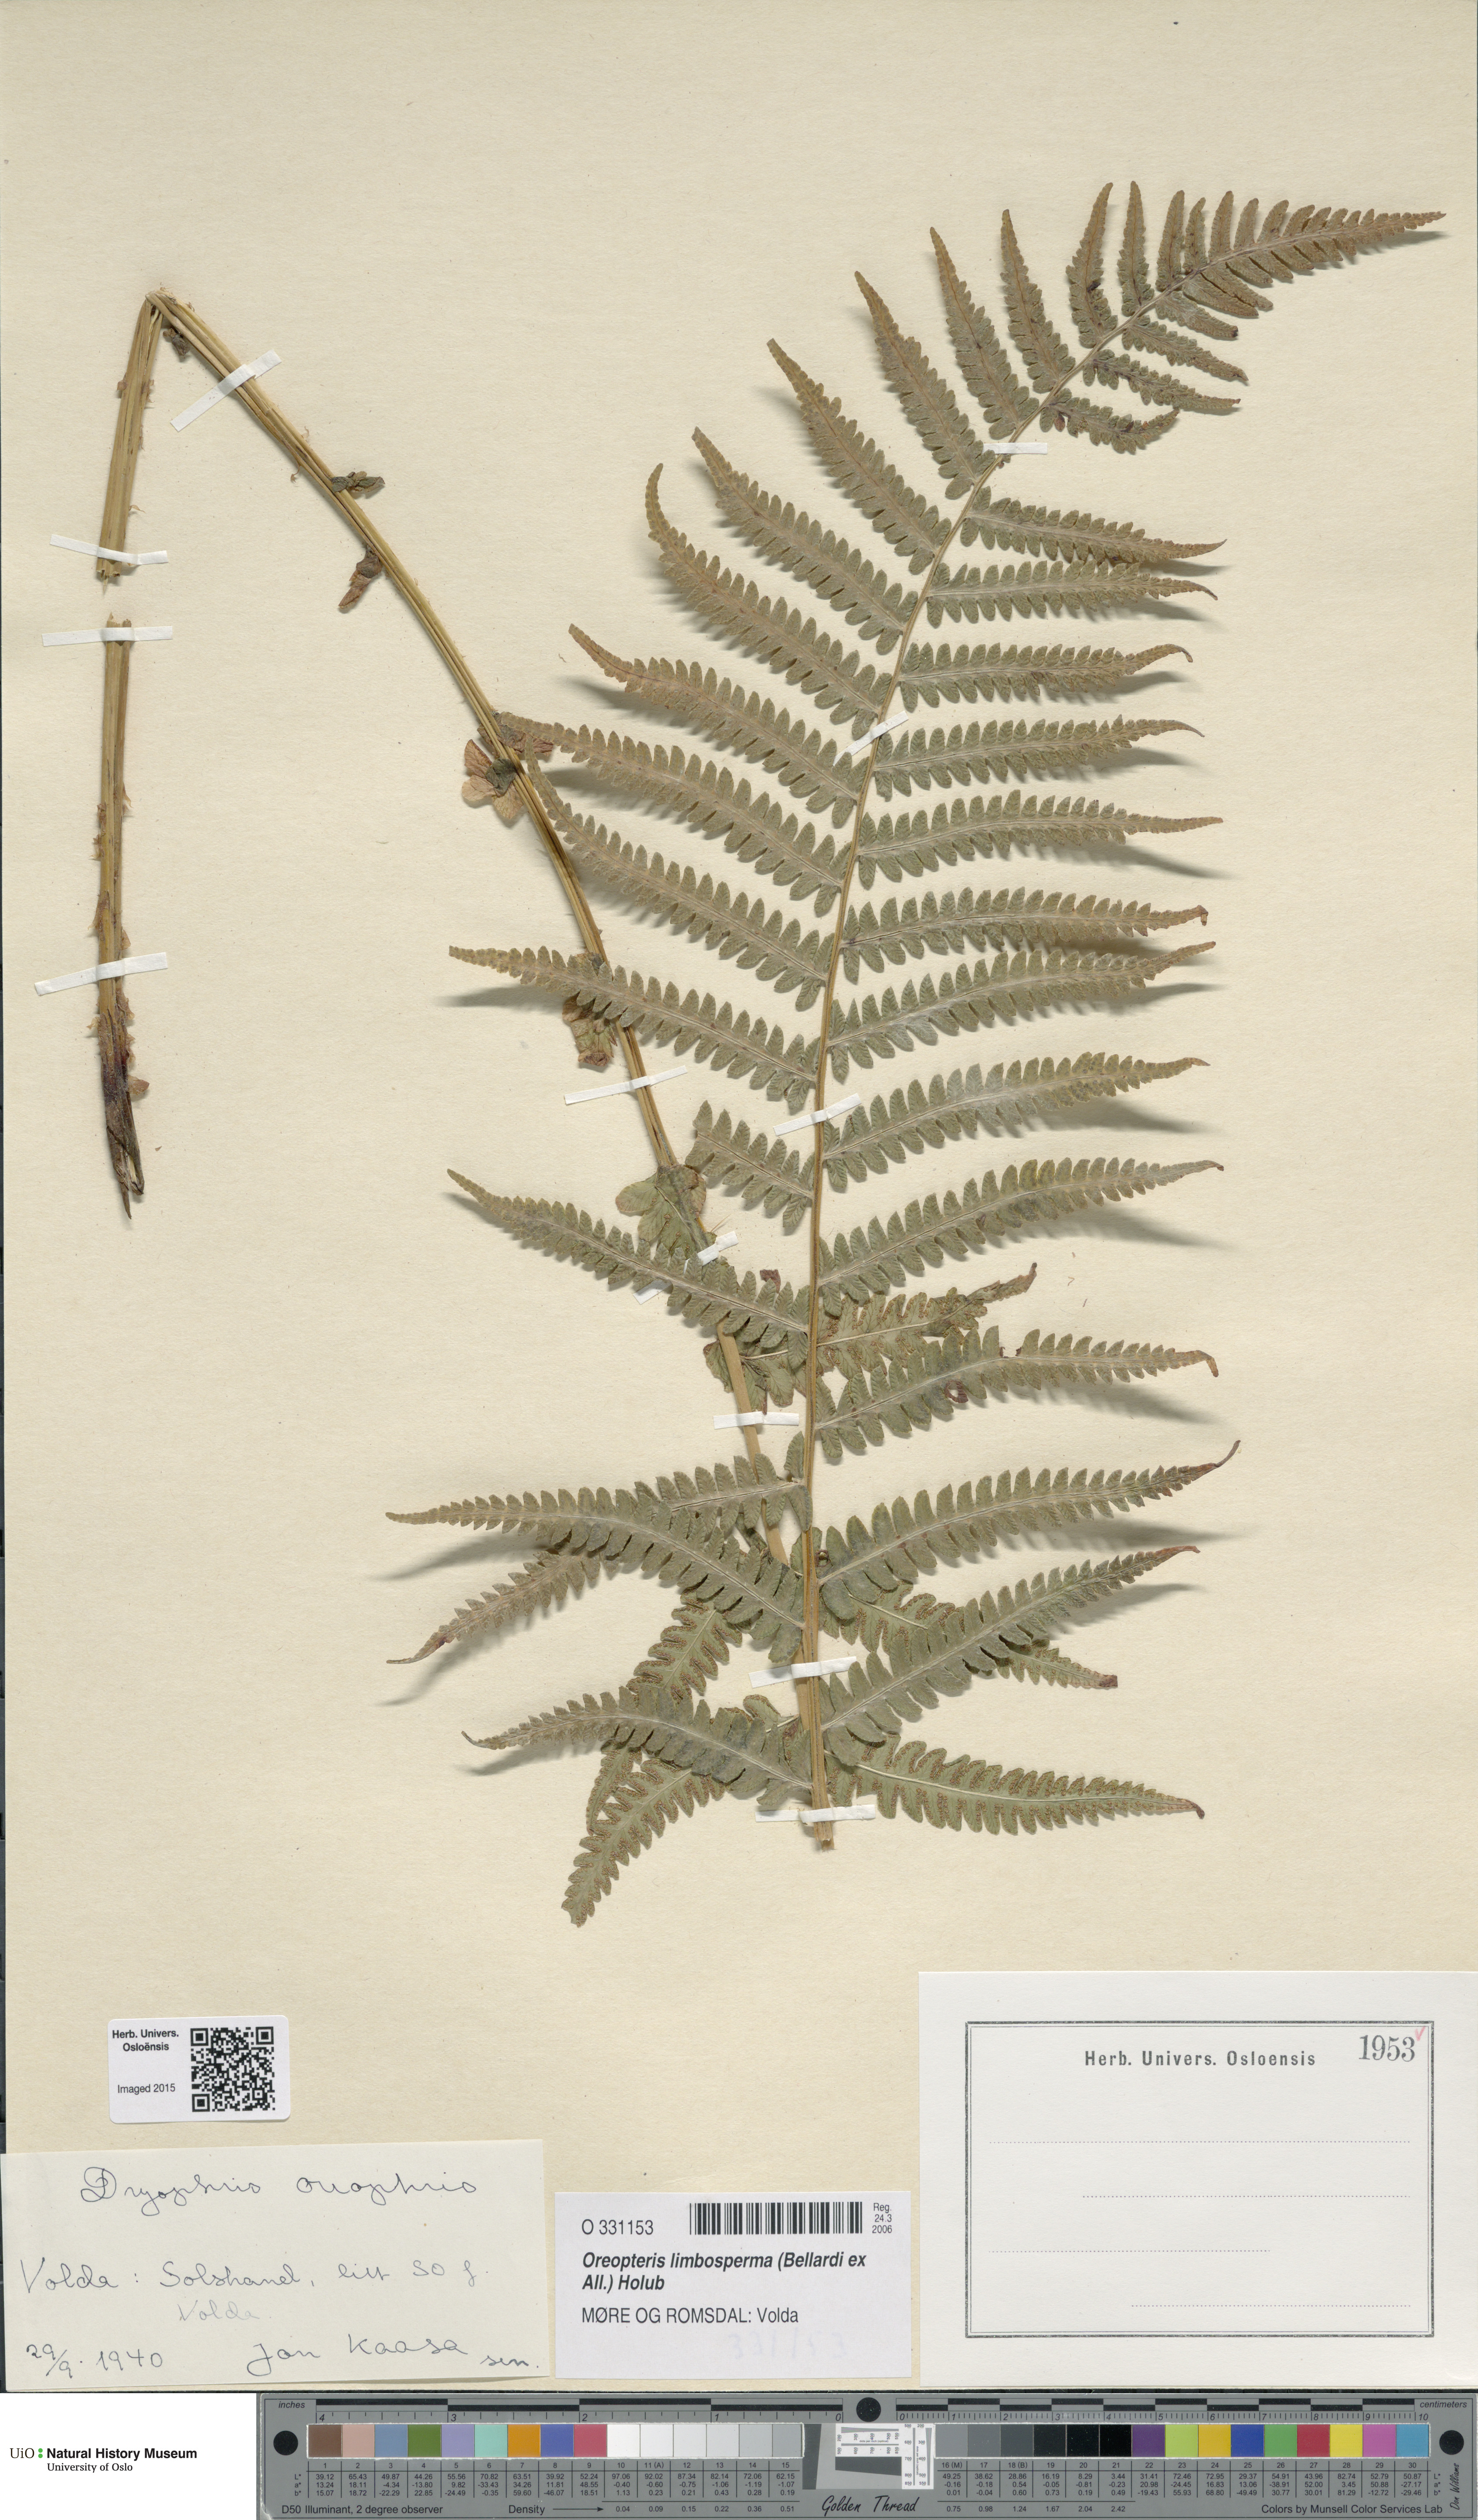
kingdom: Plantae
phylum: Tracheophyta
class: Polypodiopsida
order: Polypodiales
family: Thelypteridaceae
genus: Oreopteris
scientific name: Oreopteris limbosperma
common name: Lemon-scented fern
